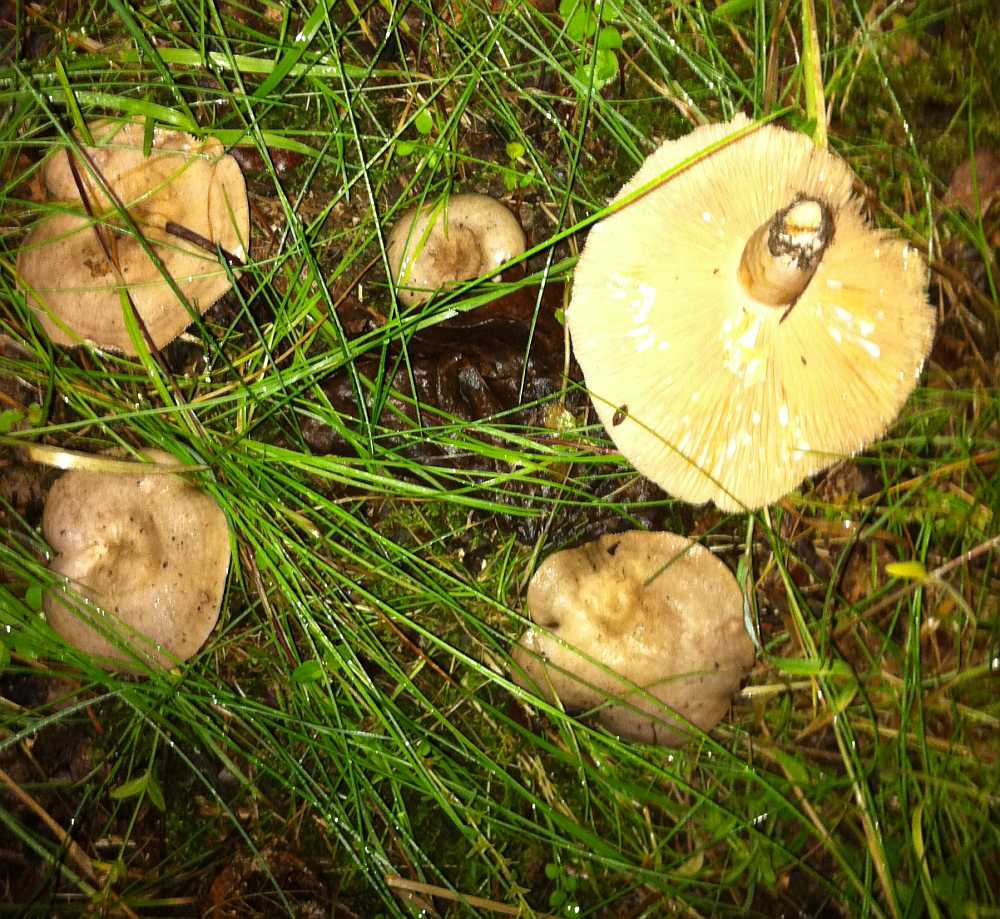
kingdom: Fungi
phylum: Basidiomycota
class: Agaricomycetes
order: Russulales
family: Russulaceae
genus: Lactarius
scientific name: Lactarius circellatus
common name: avnbøg-mælkehat
